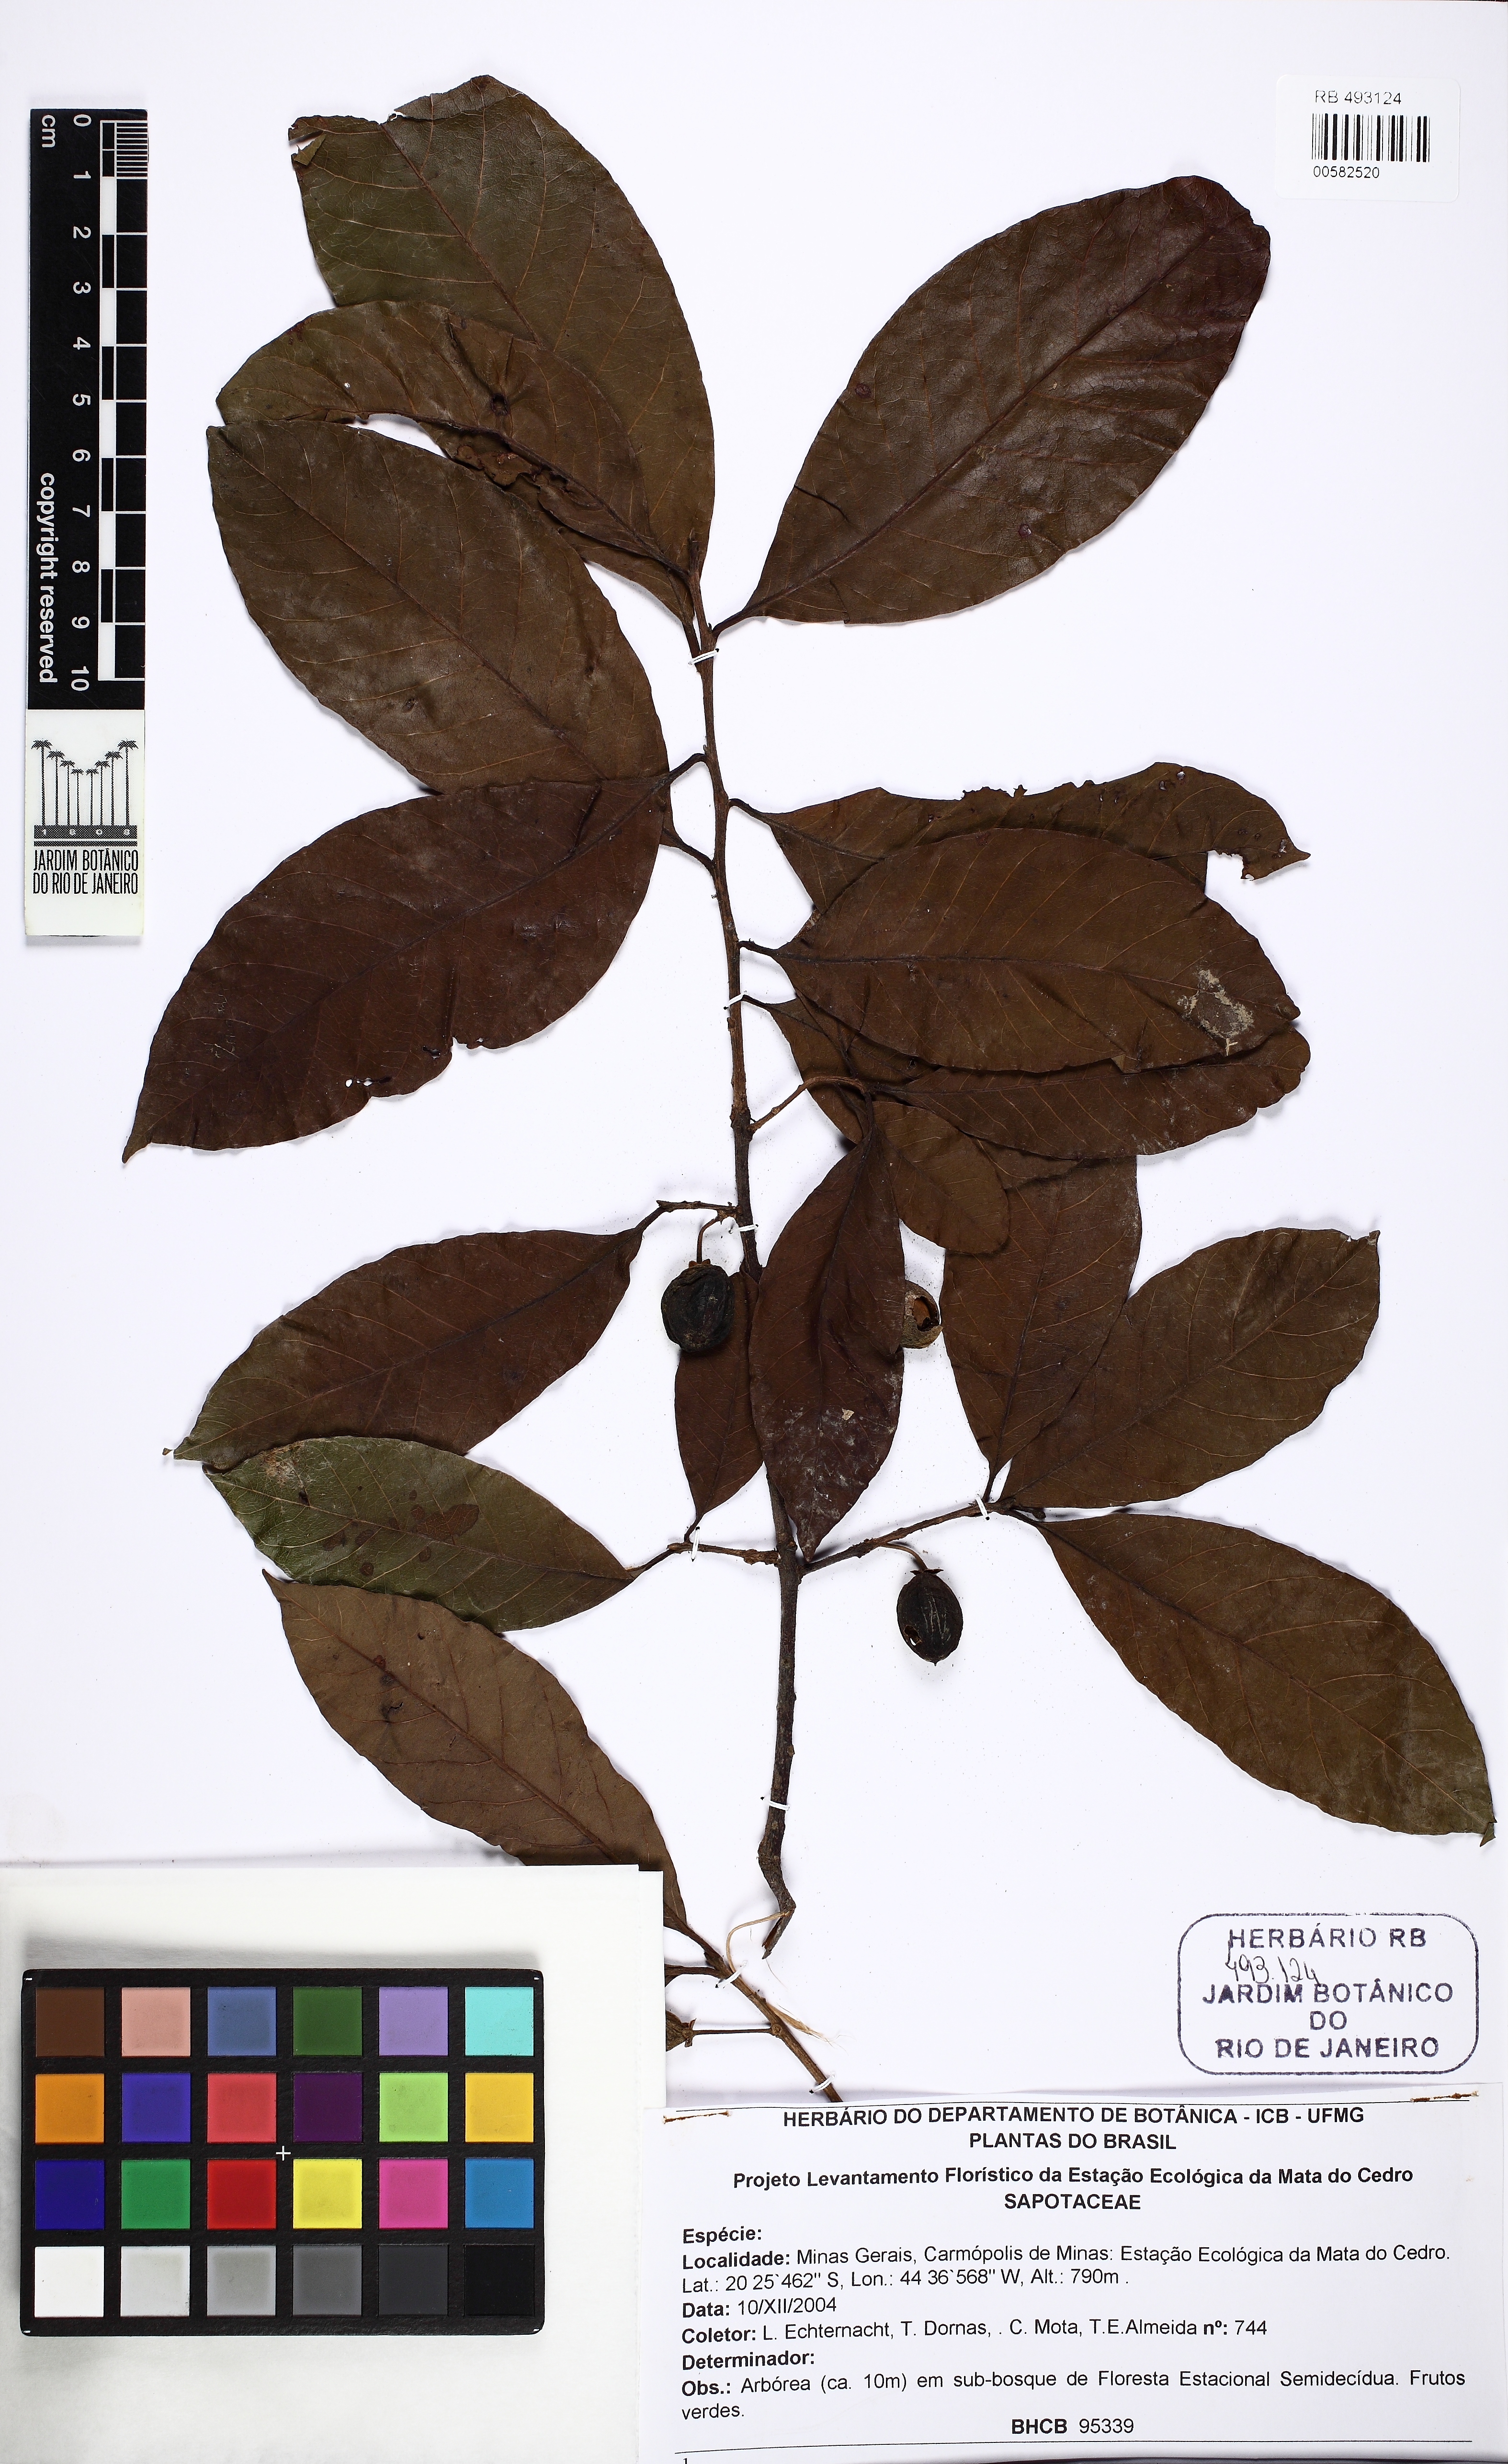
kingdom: Plantae
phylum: Tracheophyta
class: Magnoliopsida
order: Ericales
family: Sapotaceae
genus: Pouteria
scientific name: Pouteria gardneri
